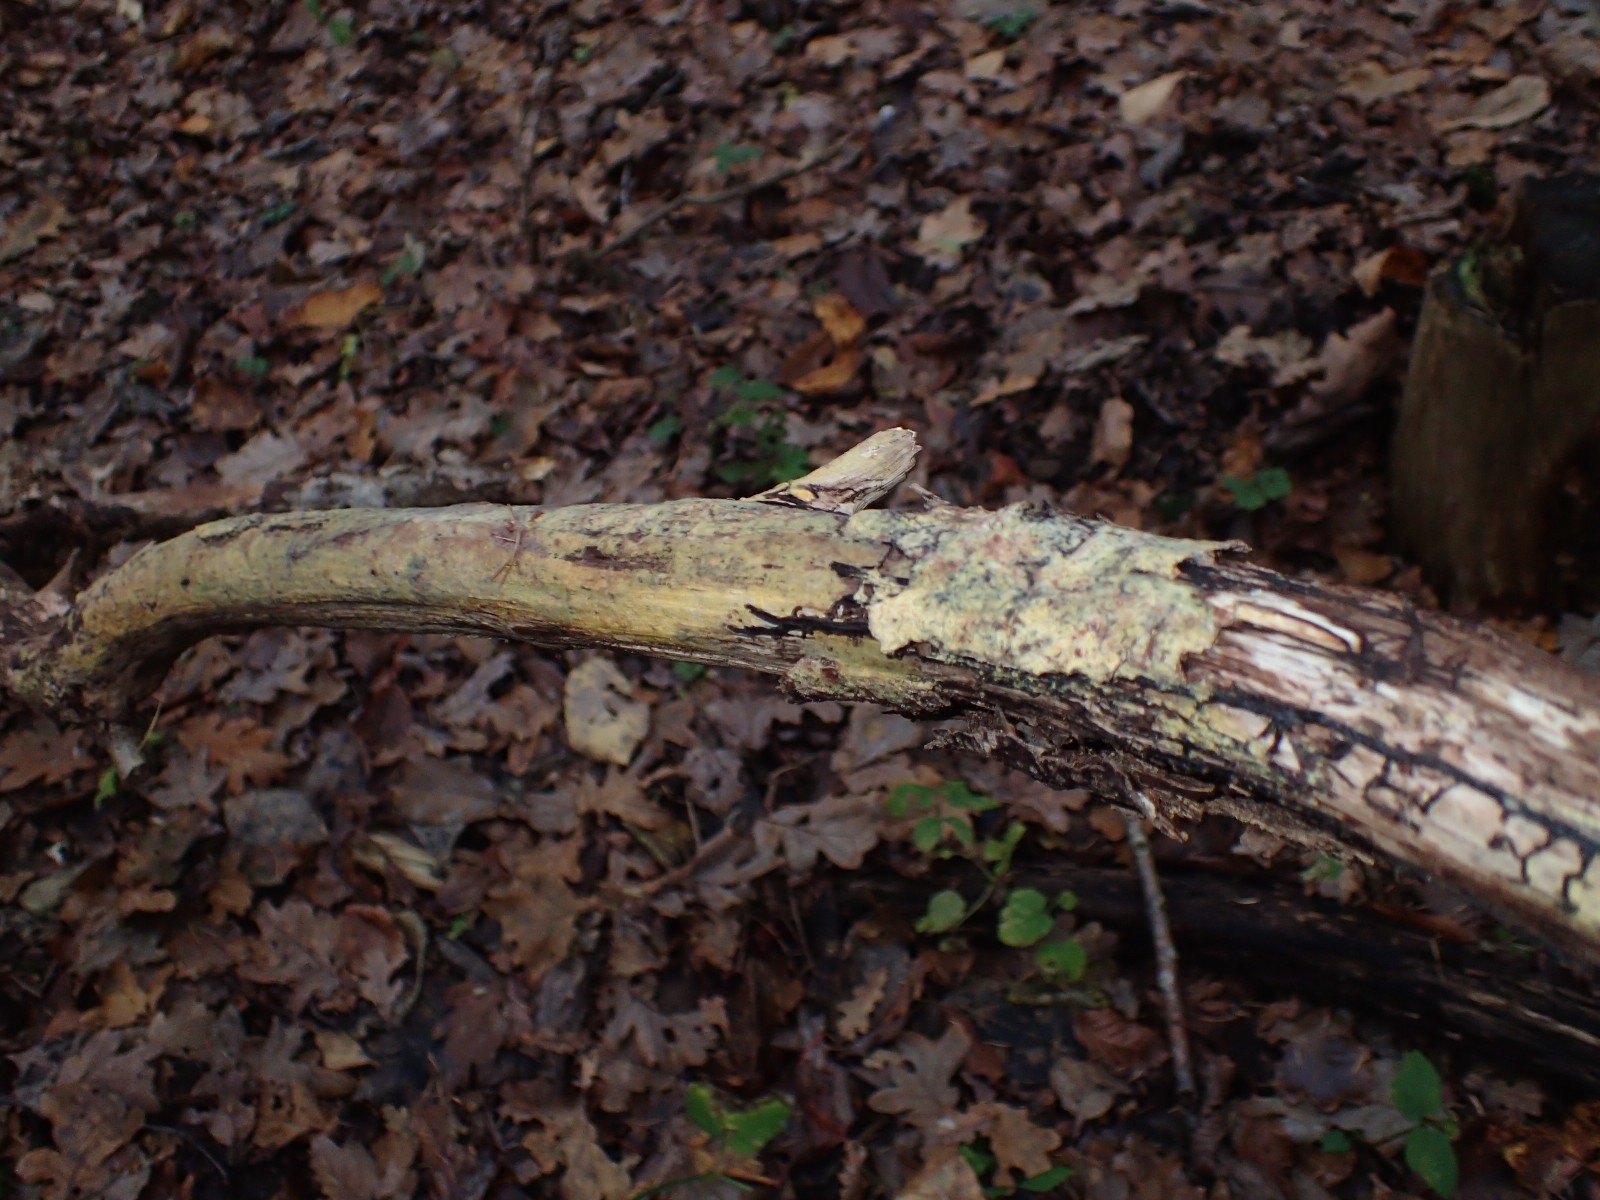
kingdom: Fungi
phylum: Basidiomycota
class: Agaricomycetes
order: Corticiales
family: Corticiaceae
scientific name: Corticiaceae
